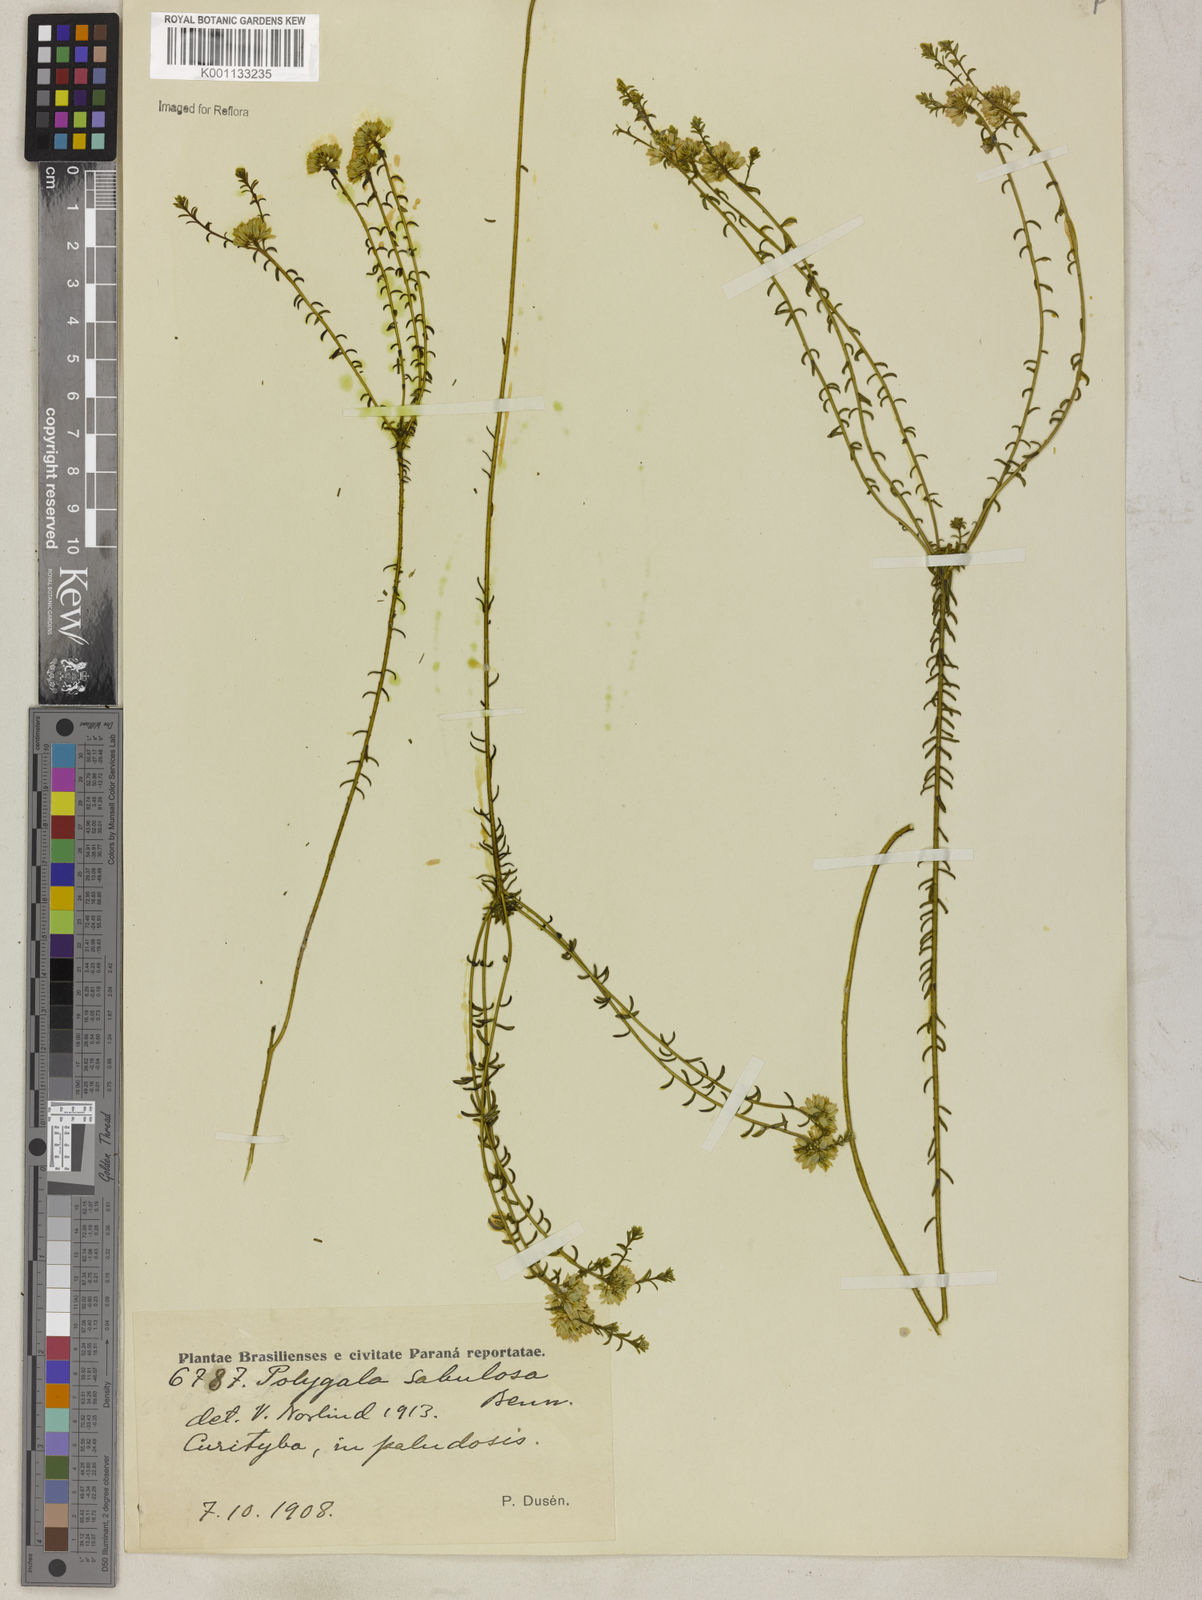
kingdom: Plantae
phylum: Tracheophyta
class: Magnoliopsida
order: Fabales
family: Polygalaceae
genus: Polygala
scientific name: Polygala sellowiana
